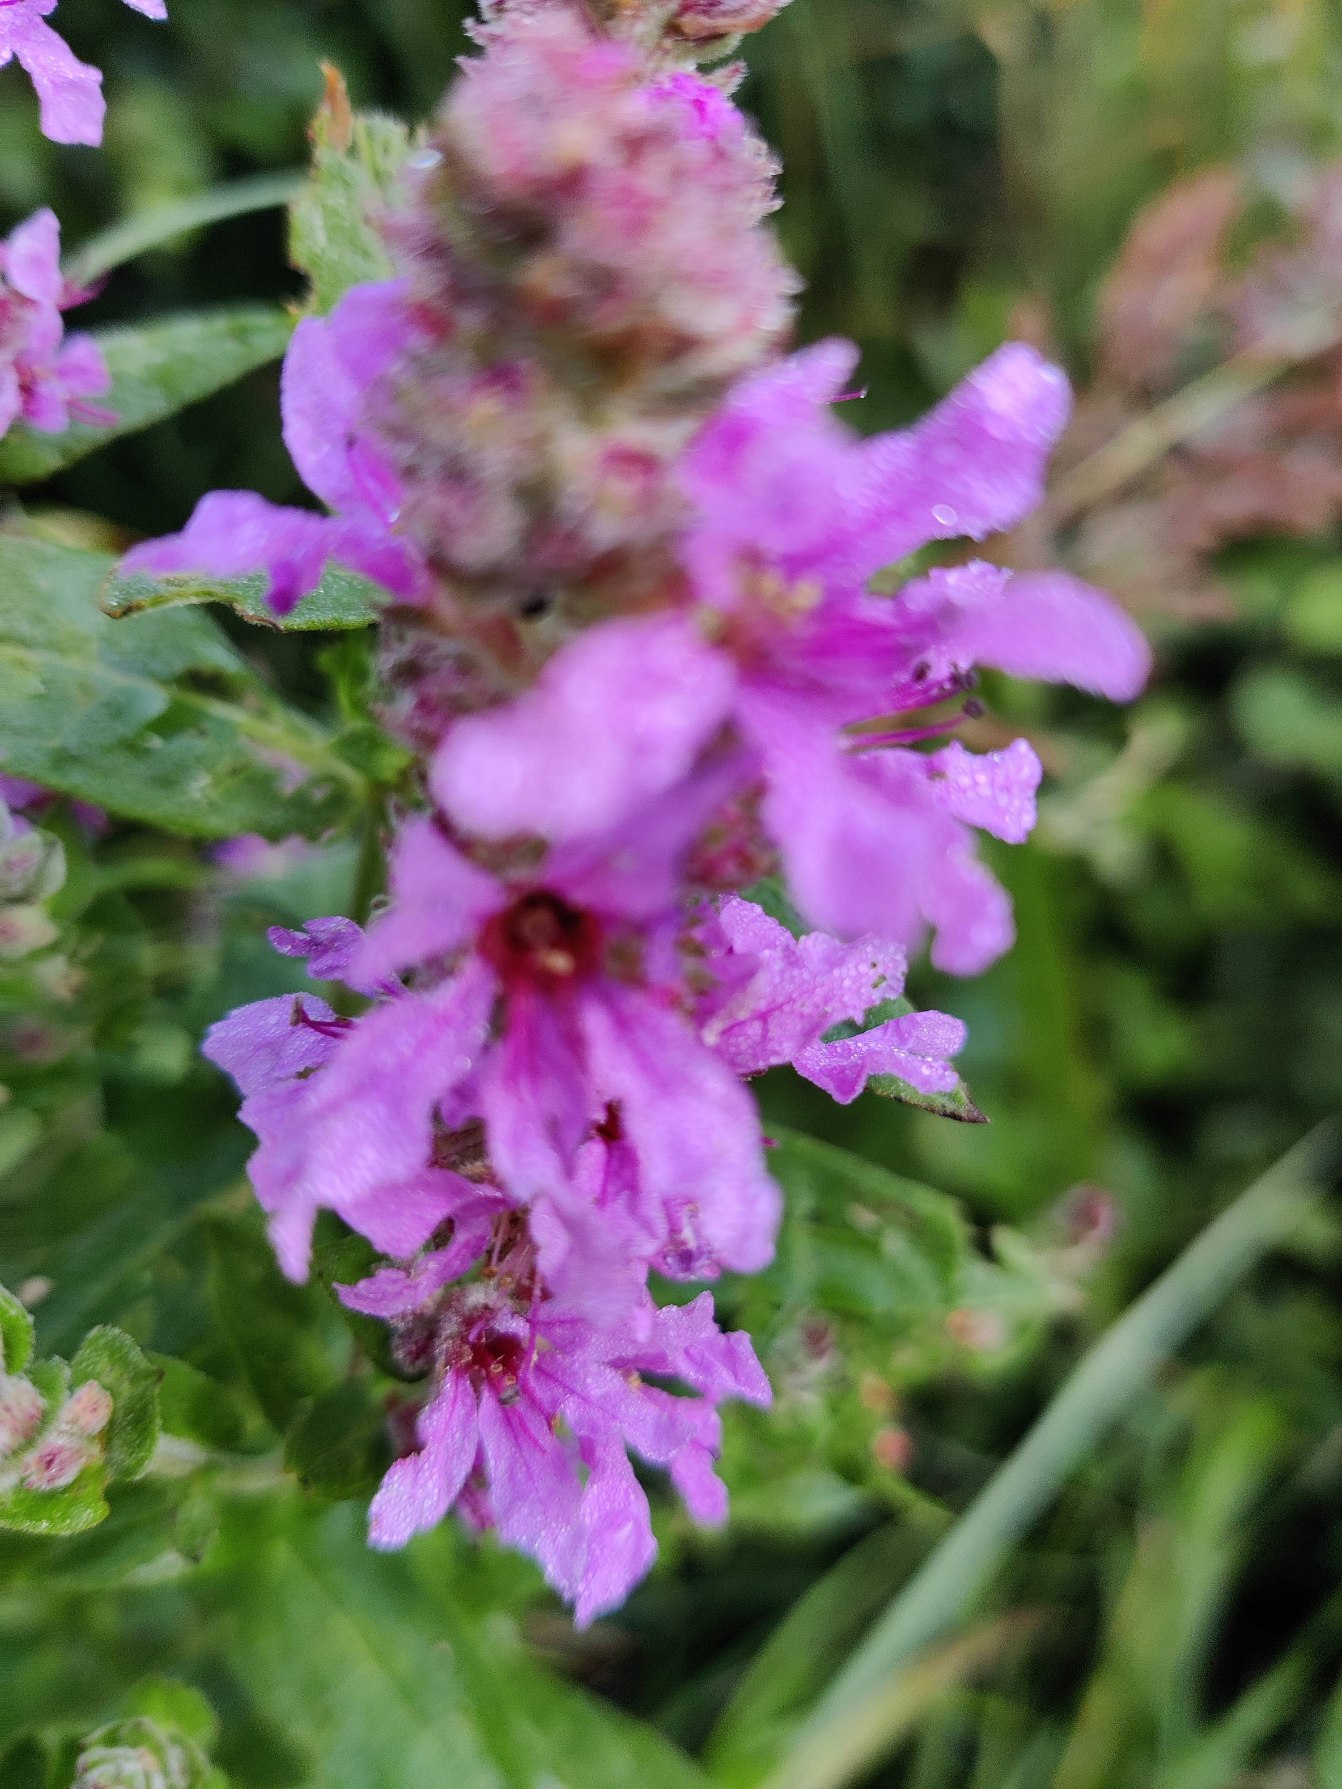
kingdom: Plantae
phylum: Tracheophyta
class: Magnoliopsida
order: Myrtales
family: Lythraceae
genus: Lythrum
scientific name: Lythrum salicaria
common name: Kattehale
